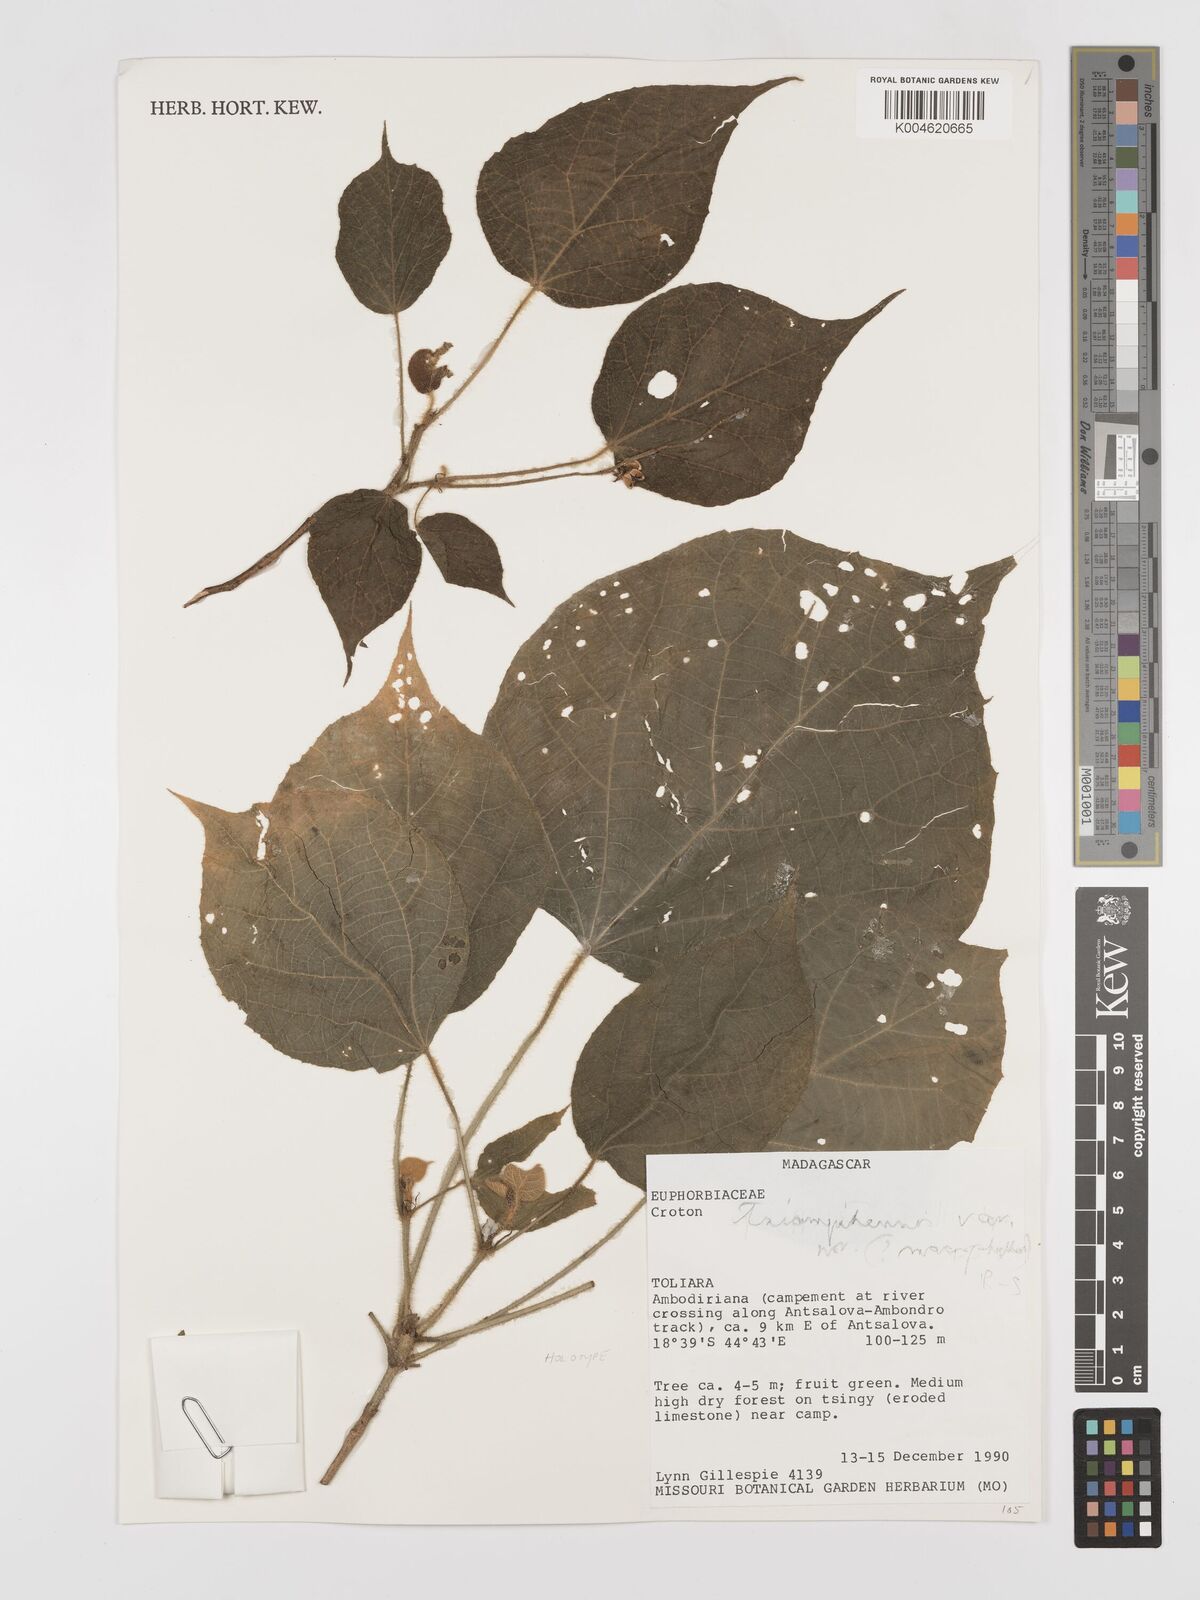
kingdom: Plantae
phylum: Tracheophyta
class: Magnoliopsida
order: Malpighiales
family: Euphorbiaceae
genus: Croton
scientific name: Croton tsiampiensis
